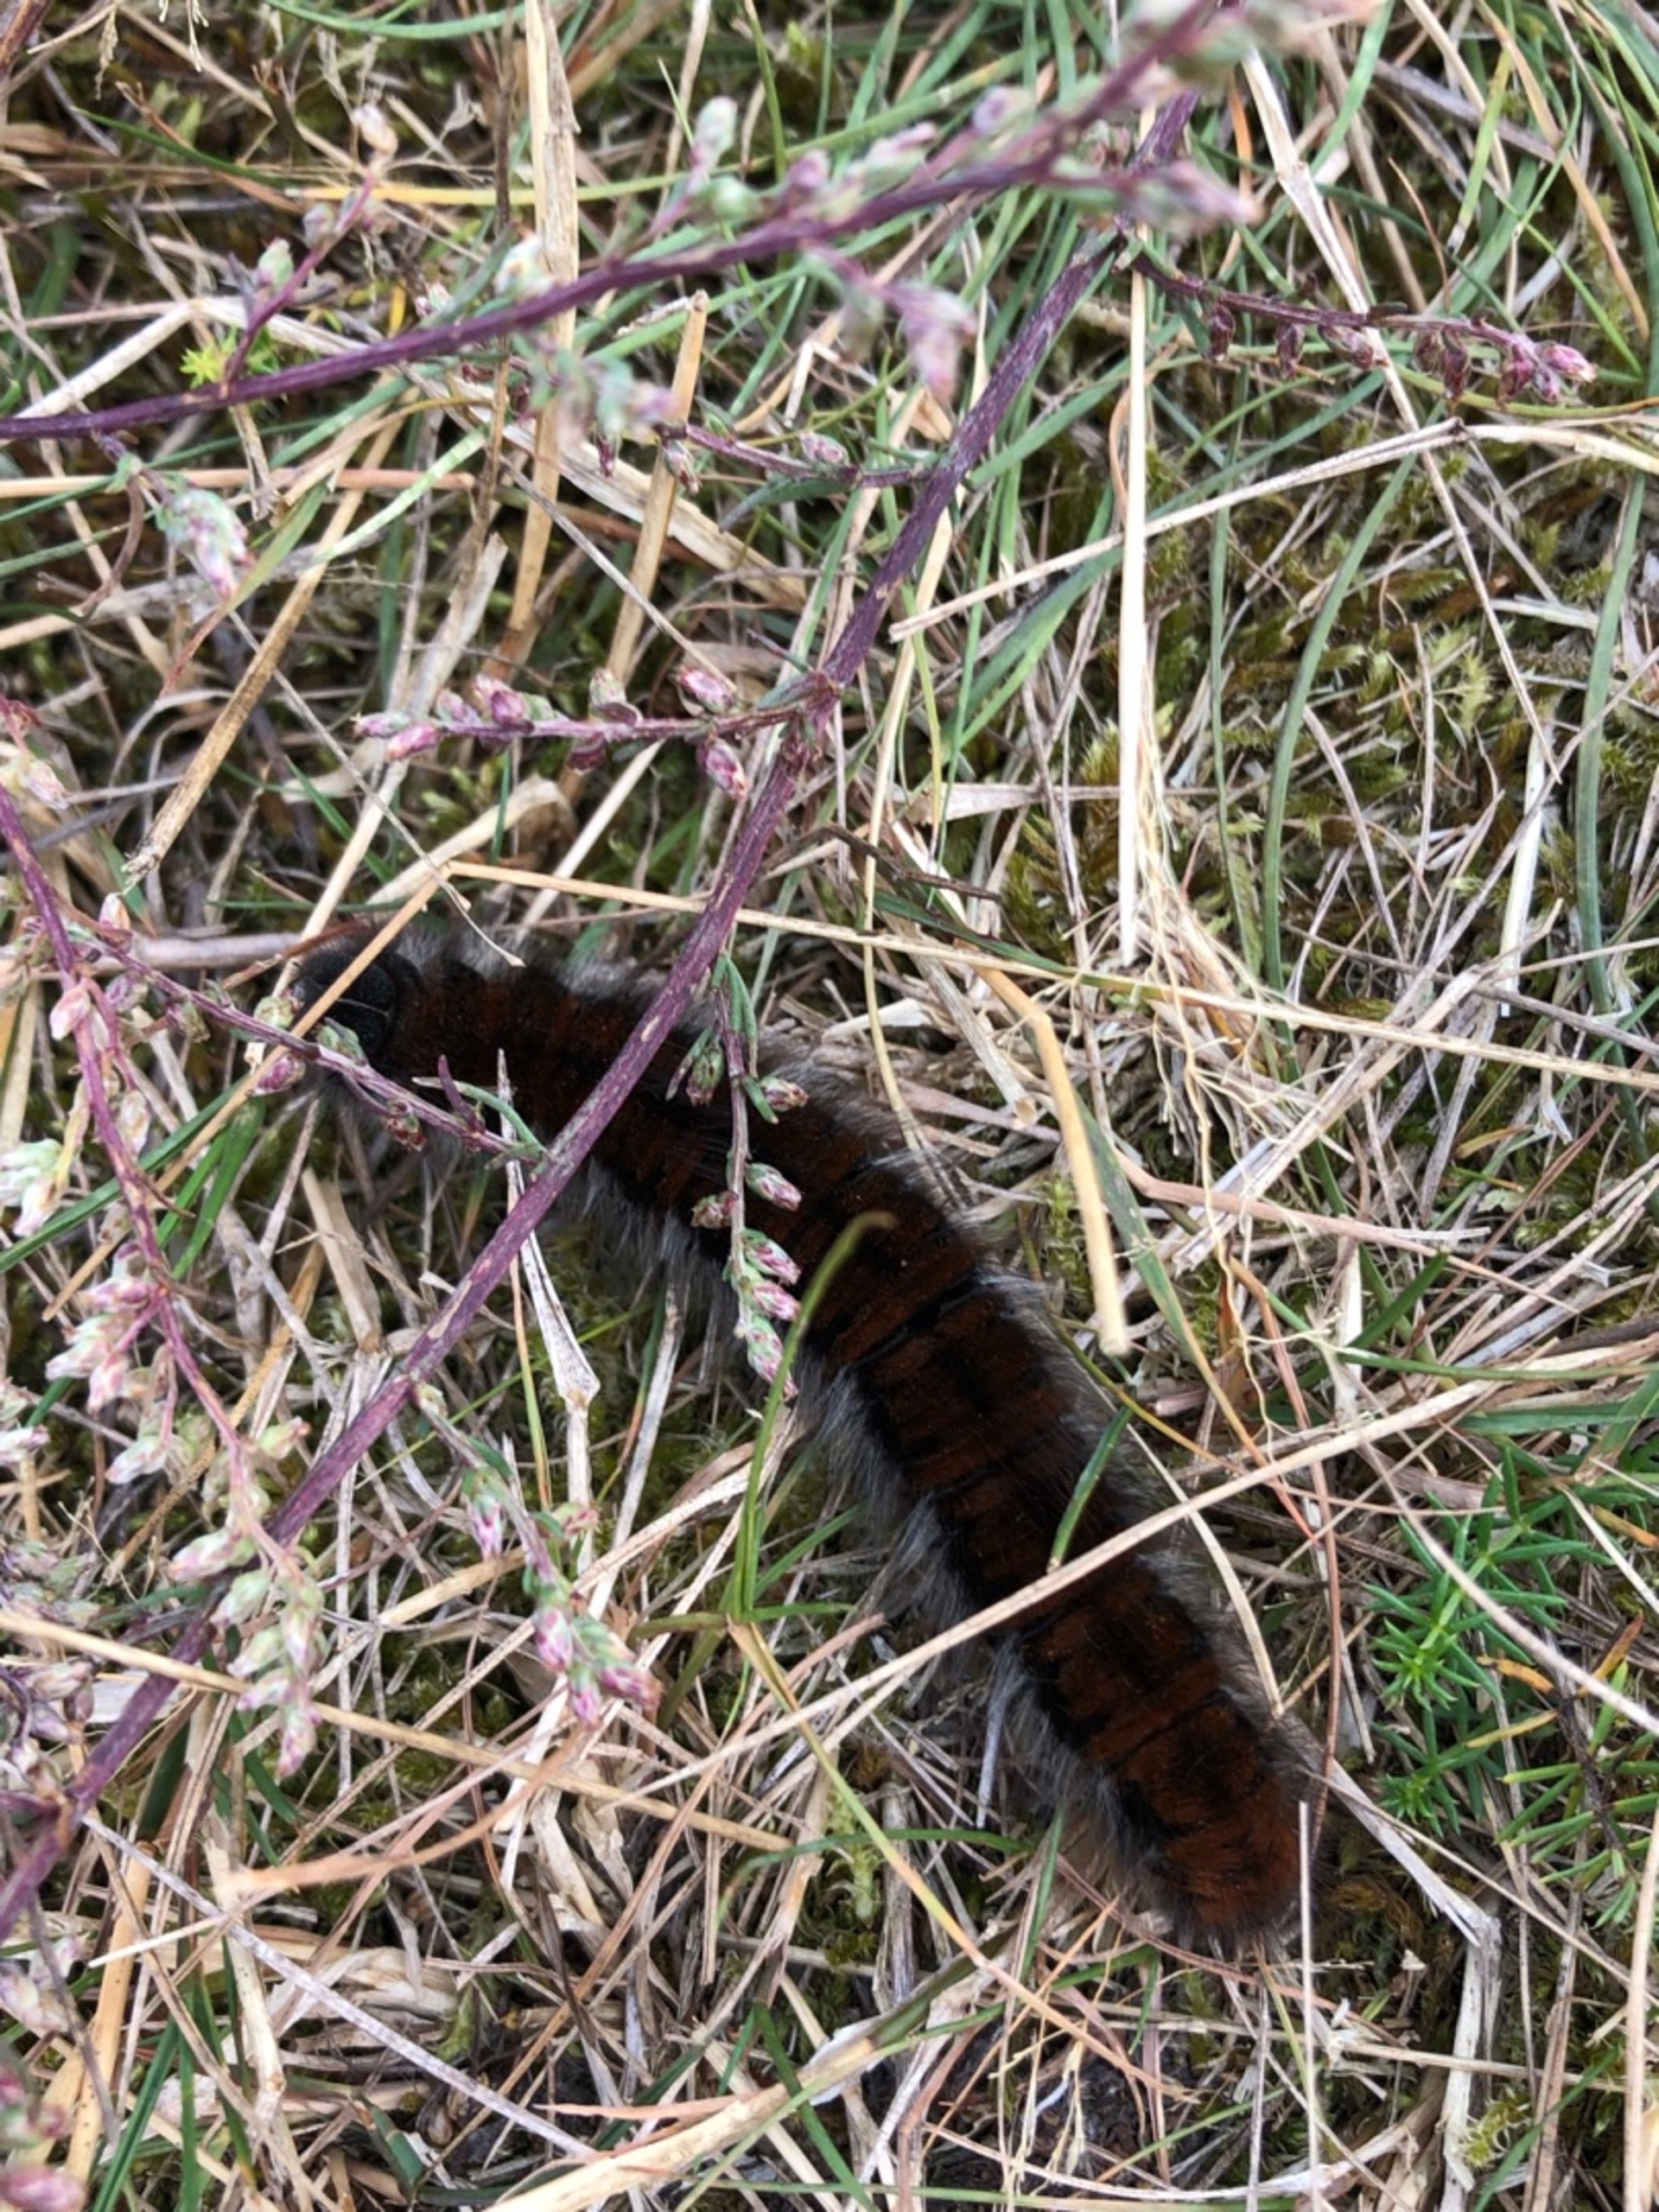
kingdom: Animalia
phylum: Arthropoda
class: Insecta
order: Lepidoptera
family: Lasiocampidae
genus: Macrothylacia
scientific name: Macrothylacia rubi
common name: Brombærspinder
